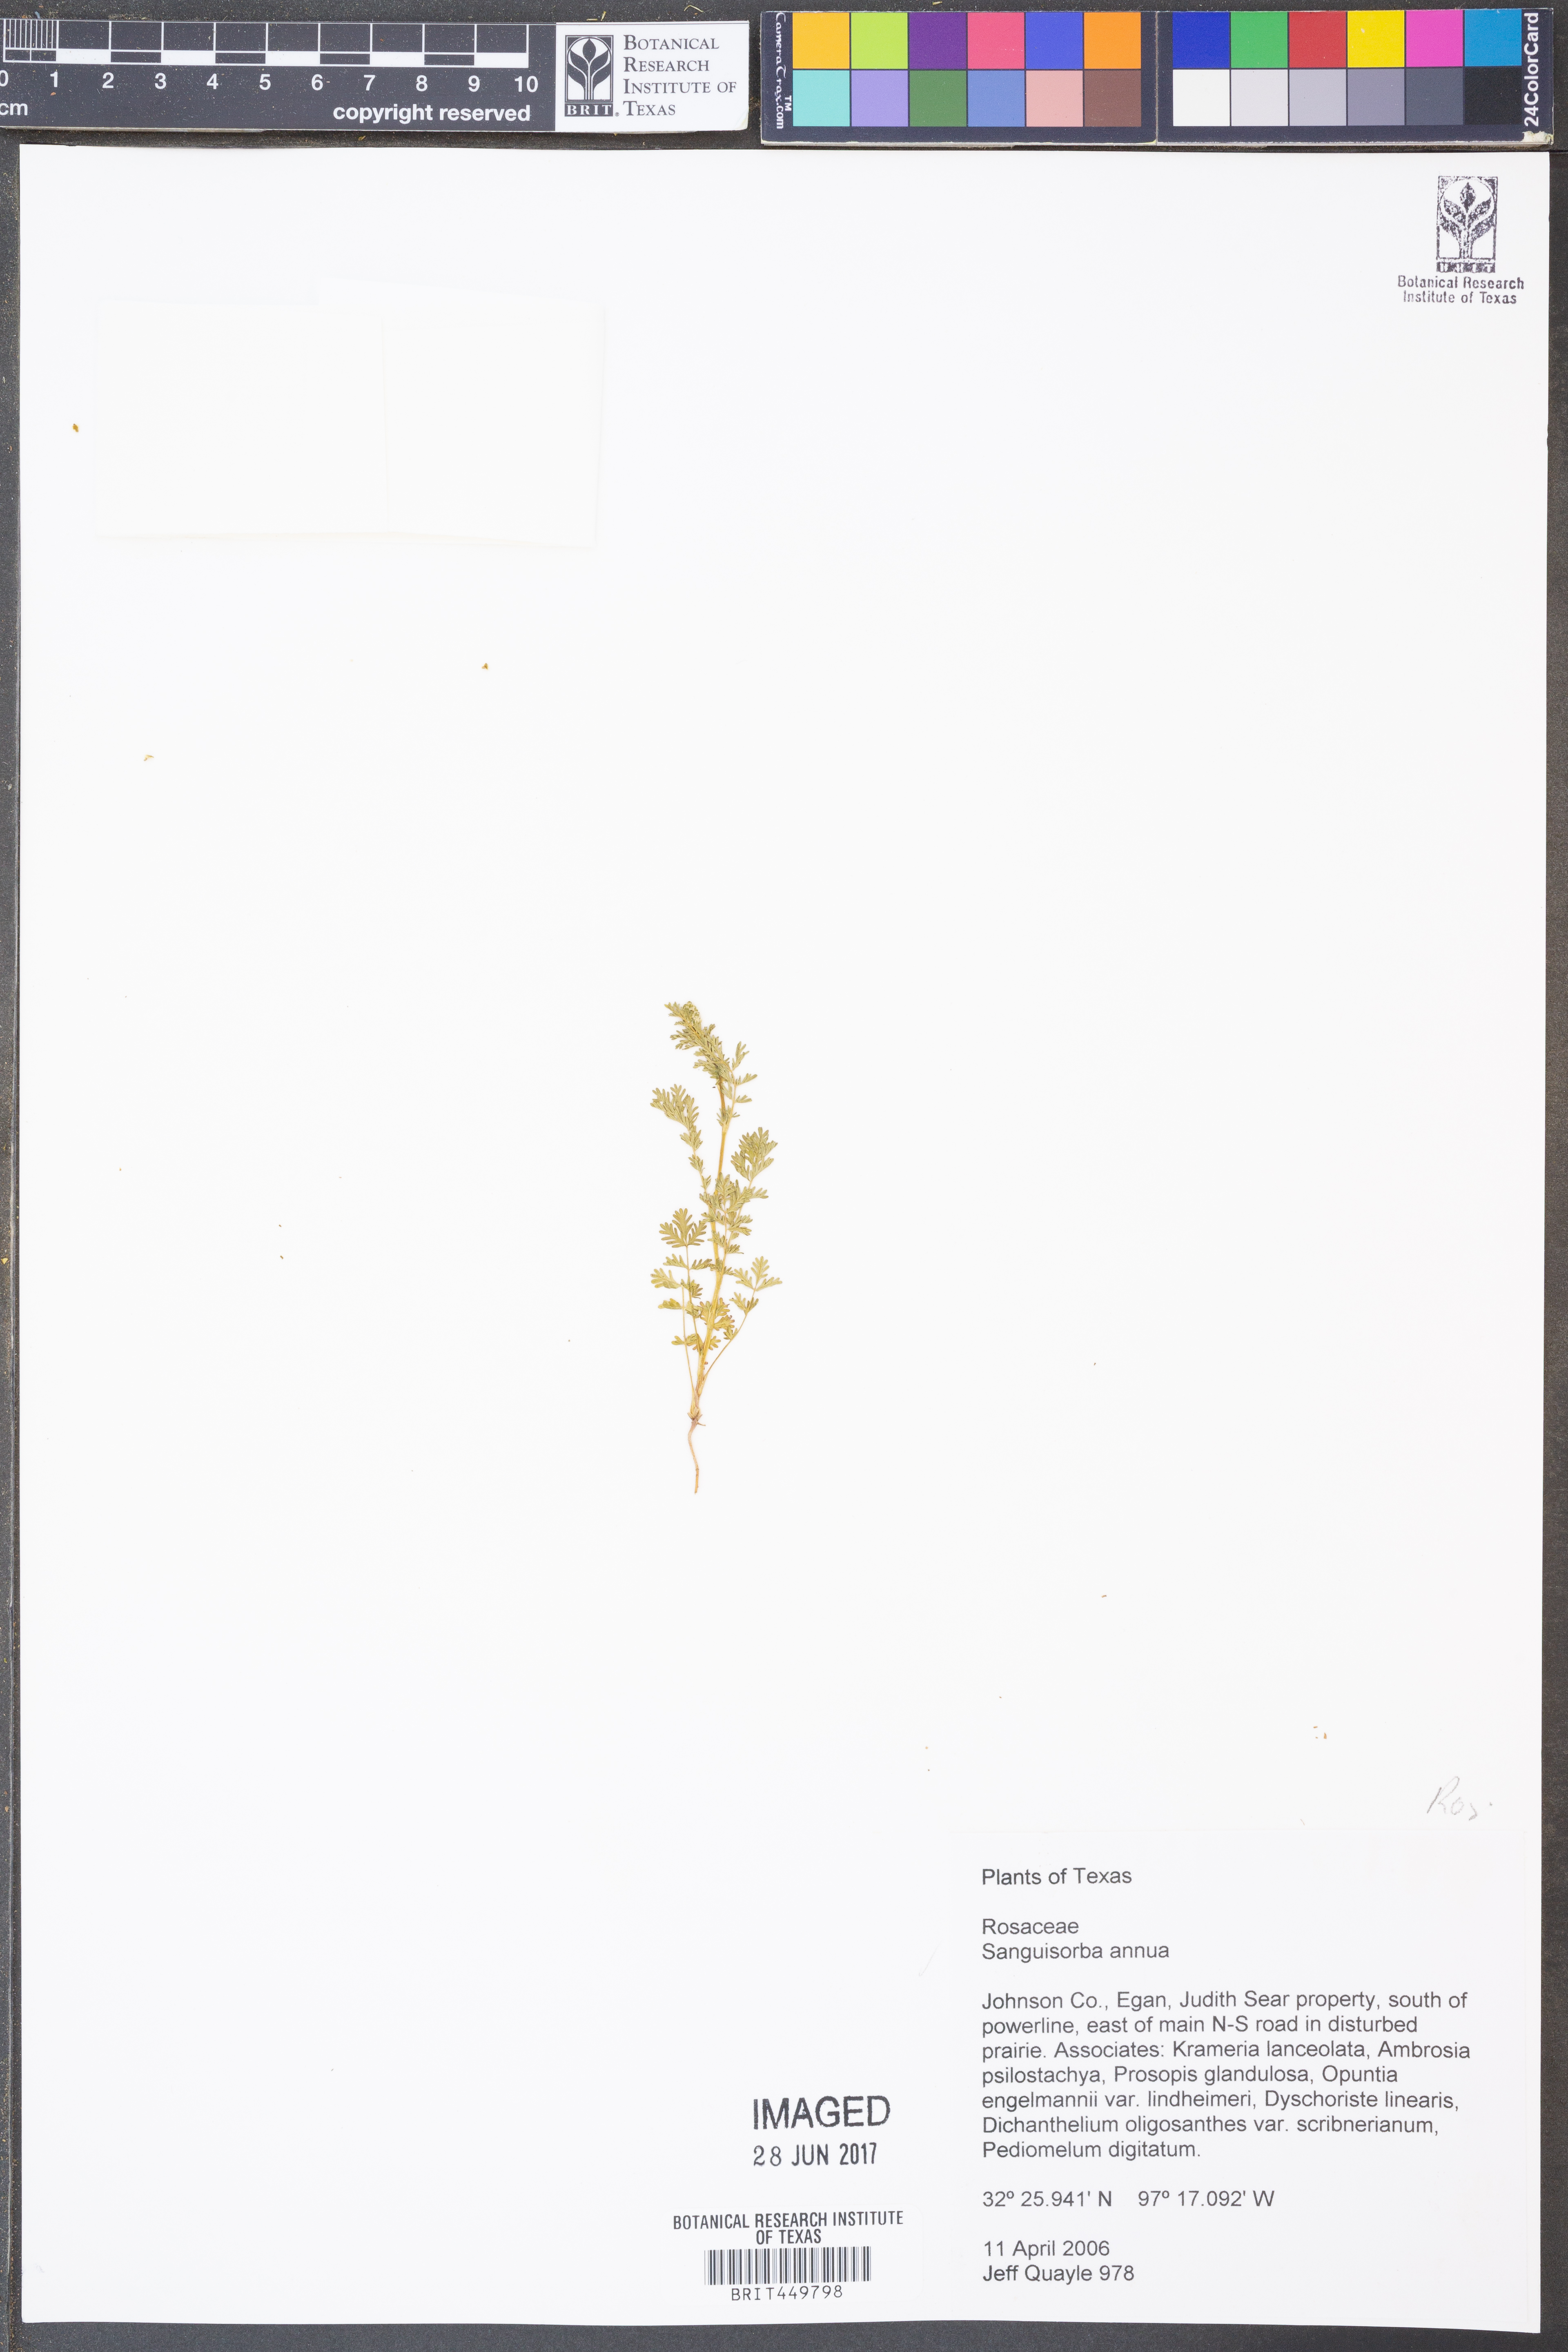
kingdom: Plantae
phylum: Tracheophyta
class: Magnoliopsida
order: Rosales
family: Rosaceae
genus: Poteridium
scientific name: Poteridium annuum
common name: Annual burnet
